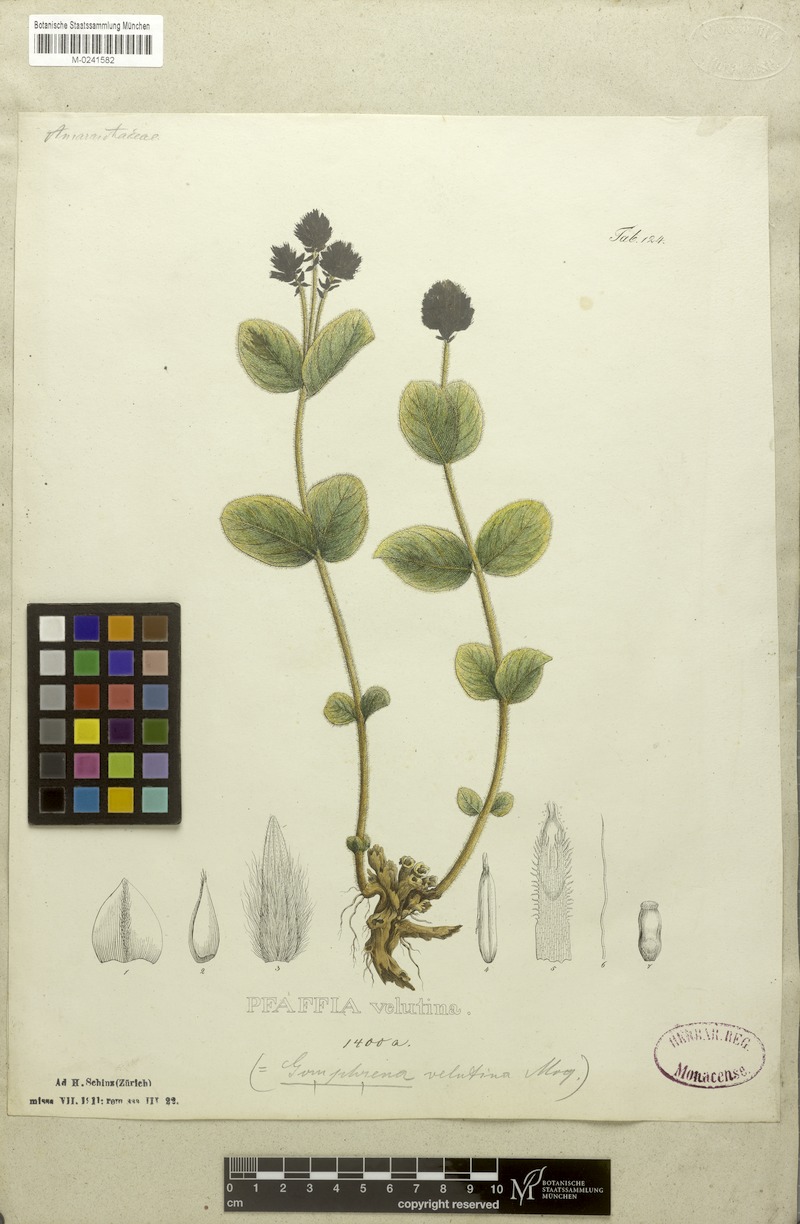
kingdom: Plantae
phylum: Tracheophyta
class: Magnoliopsida
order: Caryophyllales
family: Amaranthaceae
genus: Pfaffia
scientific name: Pfaffia velutina
